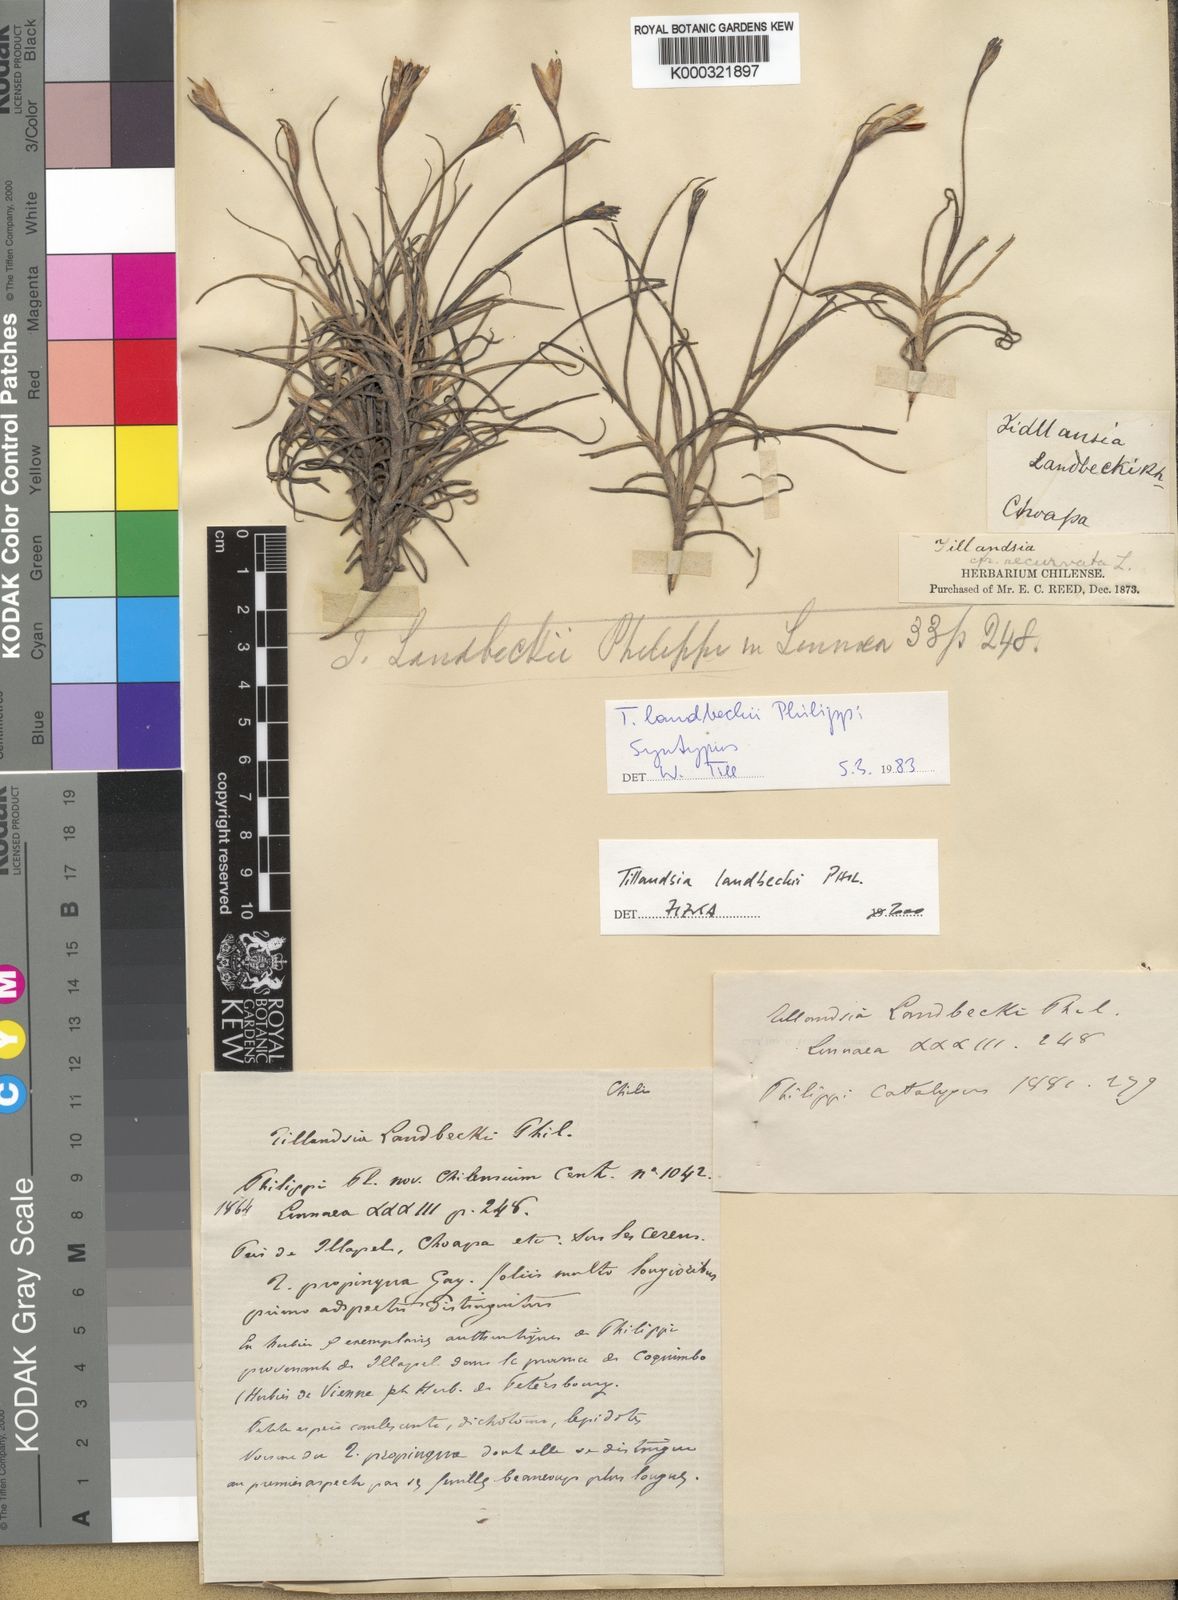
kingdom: Plantae
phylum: Tracheophyta
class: Liliopsida
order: Poales
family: Bromeliaceae
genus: Tillandsia
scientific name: Tillandsia landbeckii
